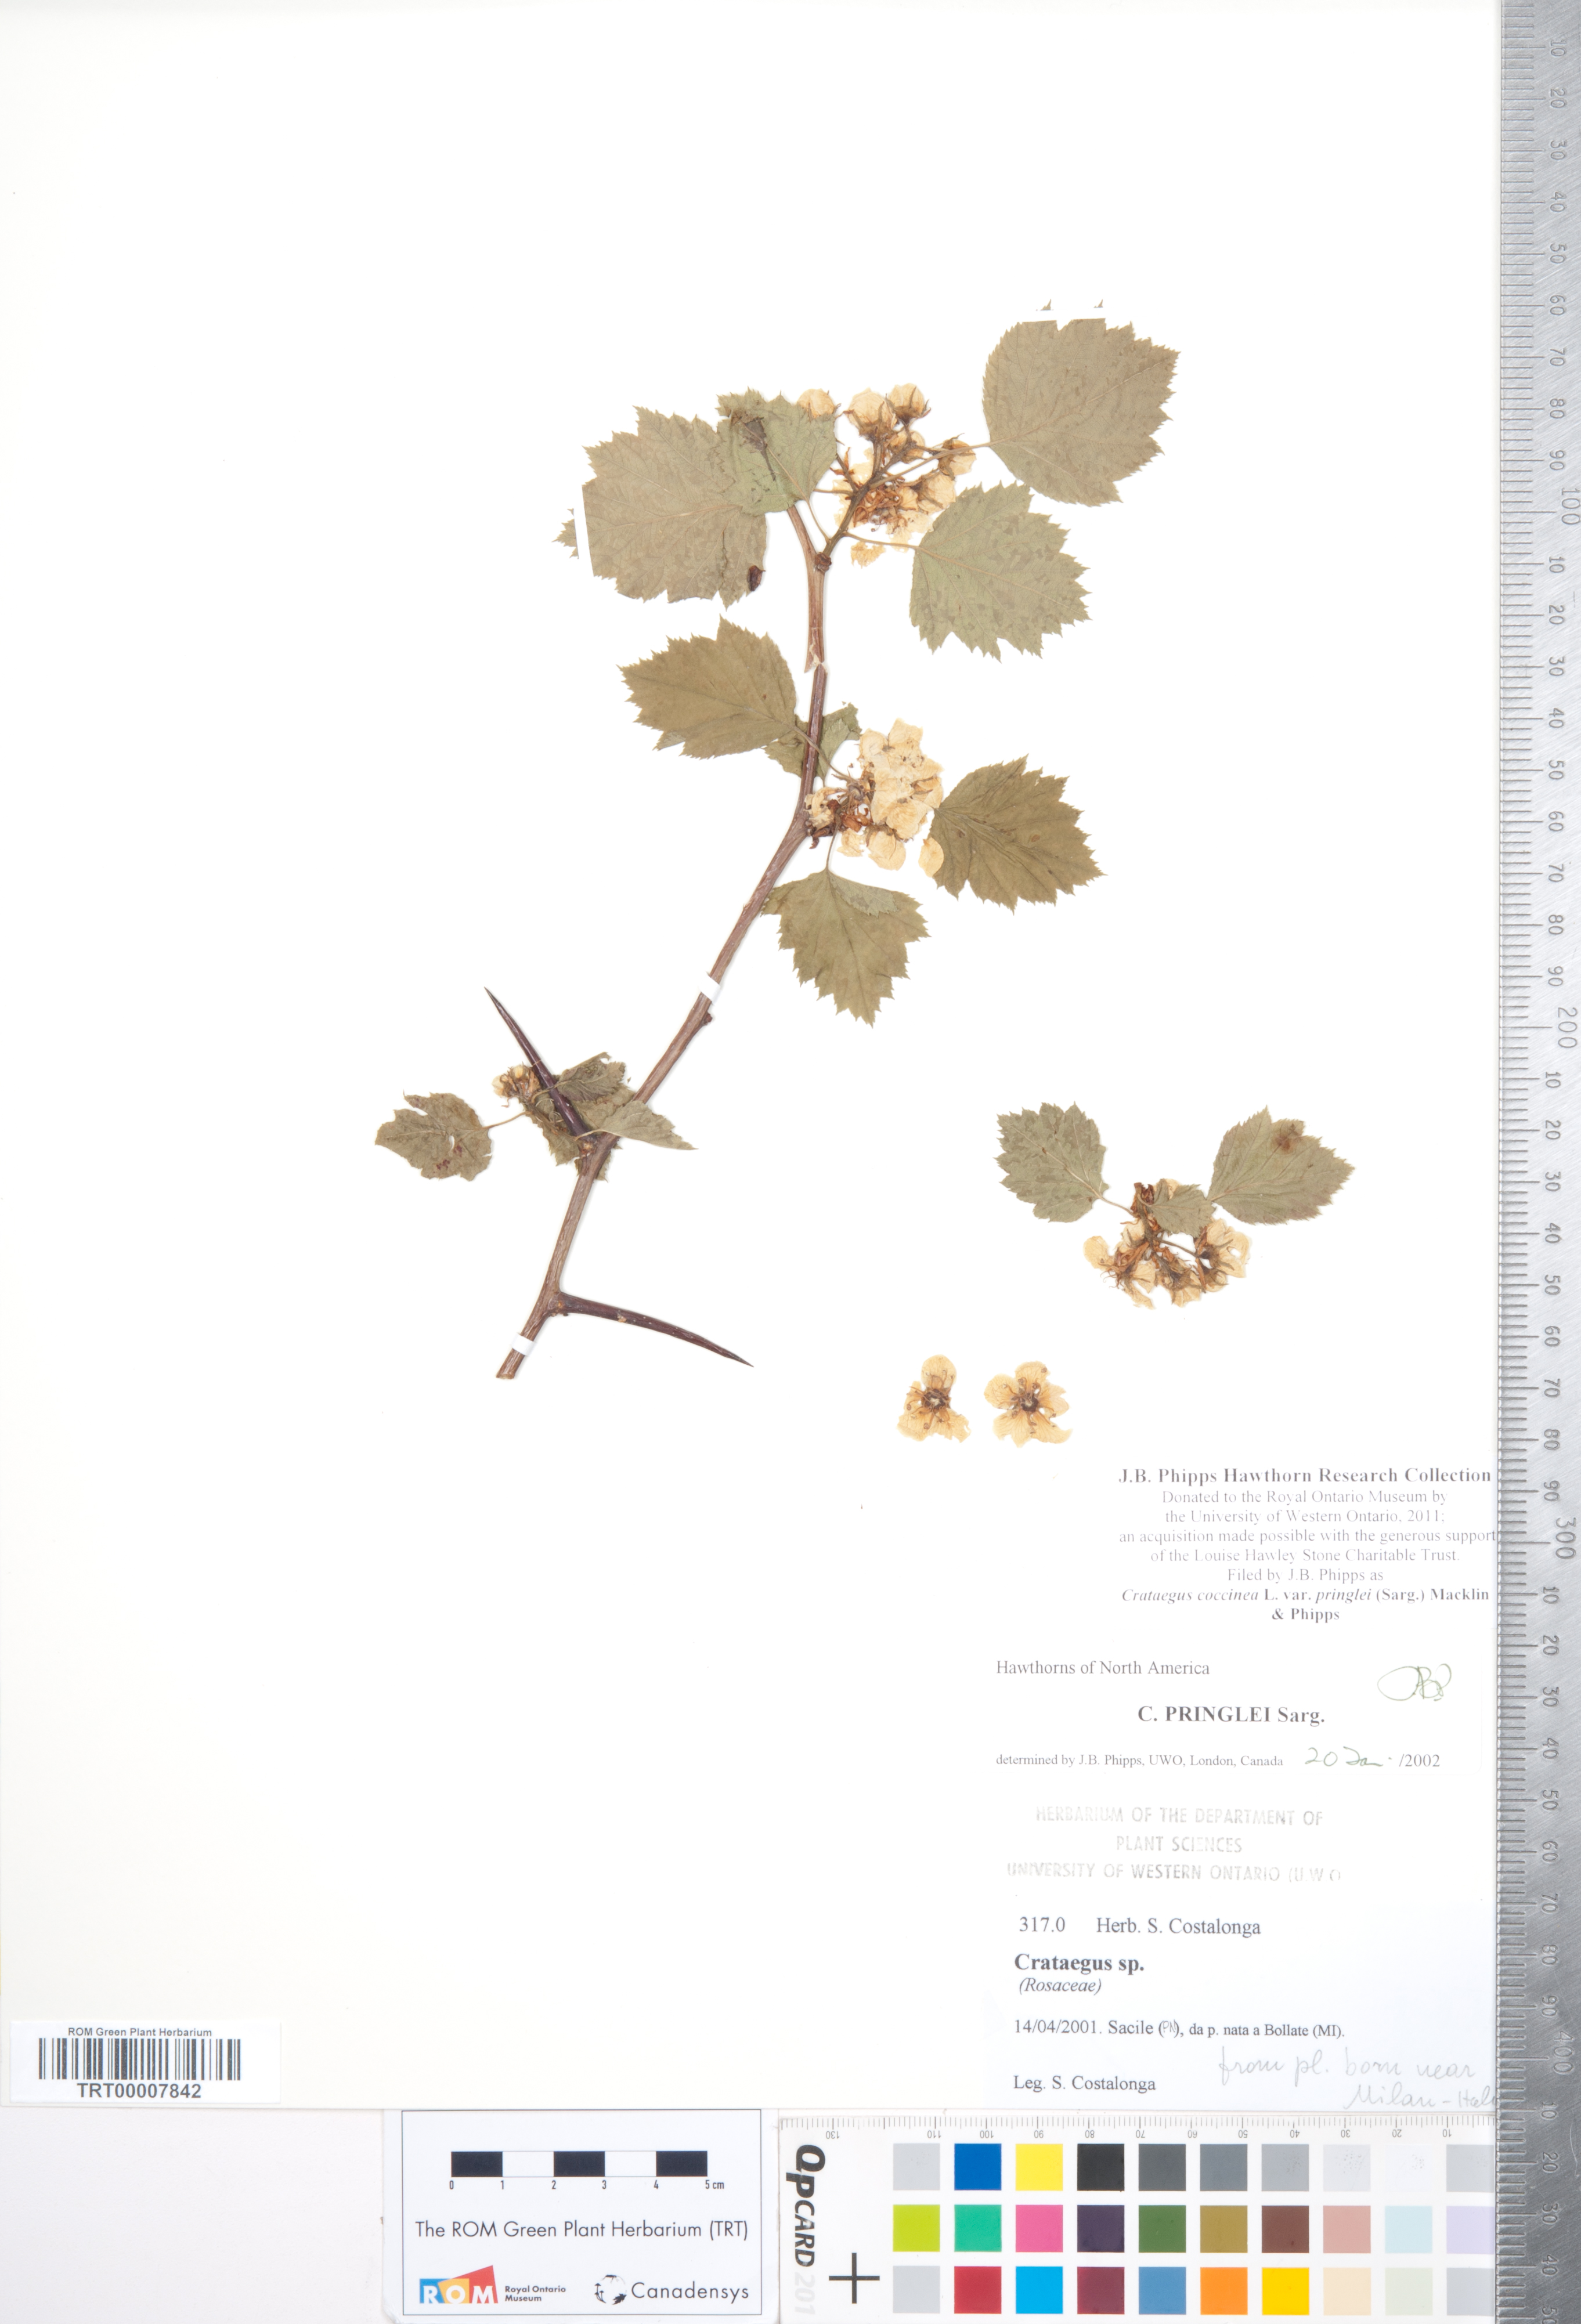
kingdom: Plantae
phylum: Tracheophyta
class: Magnoliopsida
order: Rosales
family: Rosaceae
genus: Crataegus
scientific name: Crataegus coccinea
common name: Scarlet hawthorn
